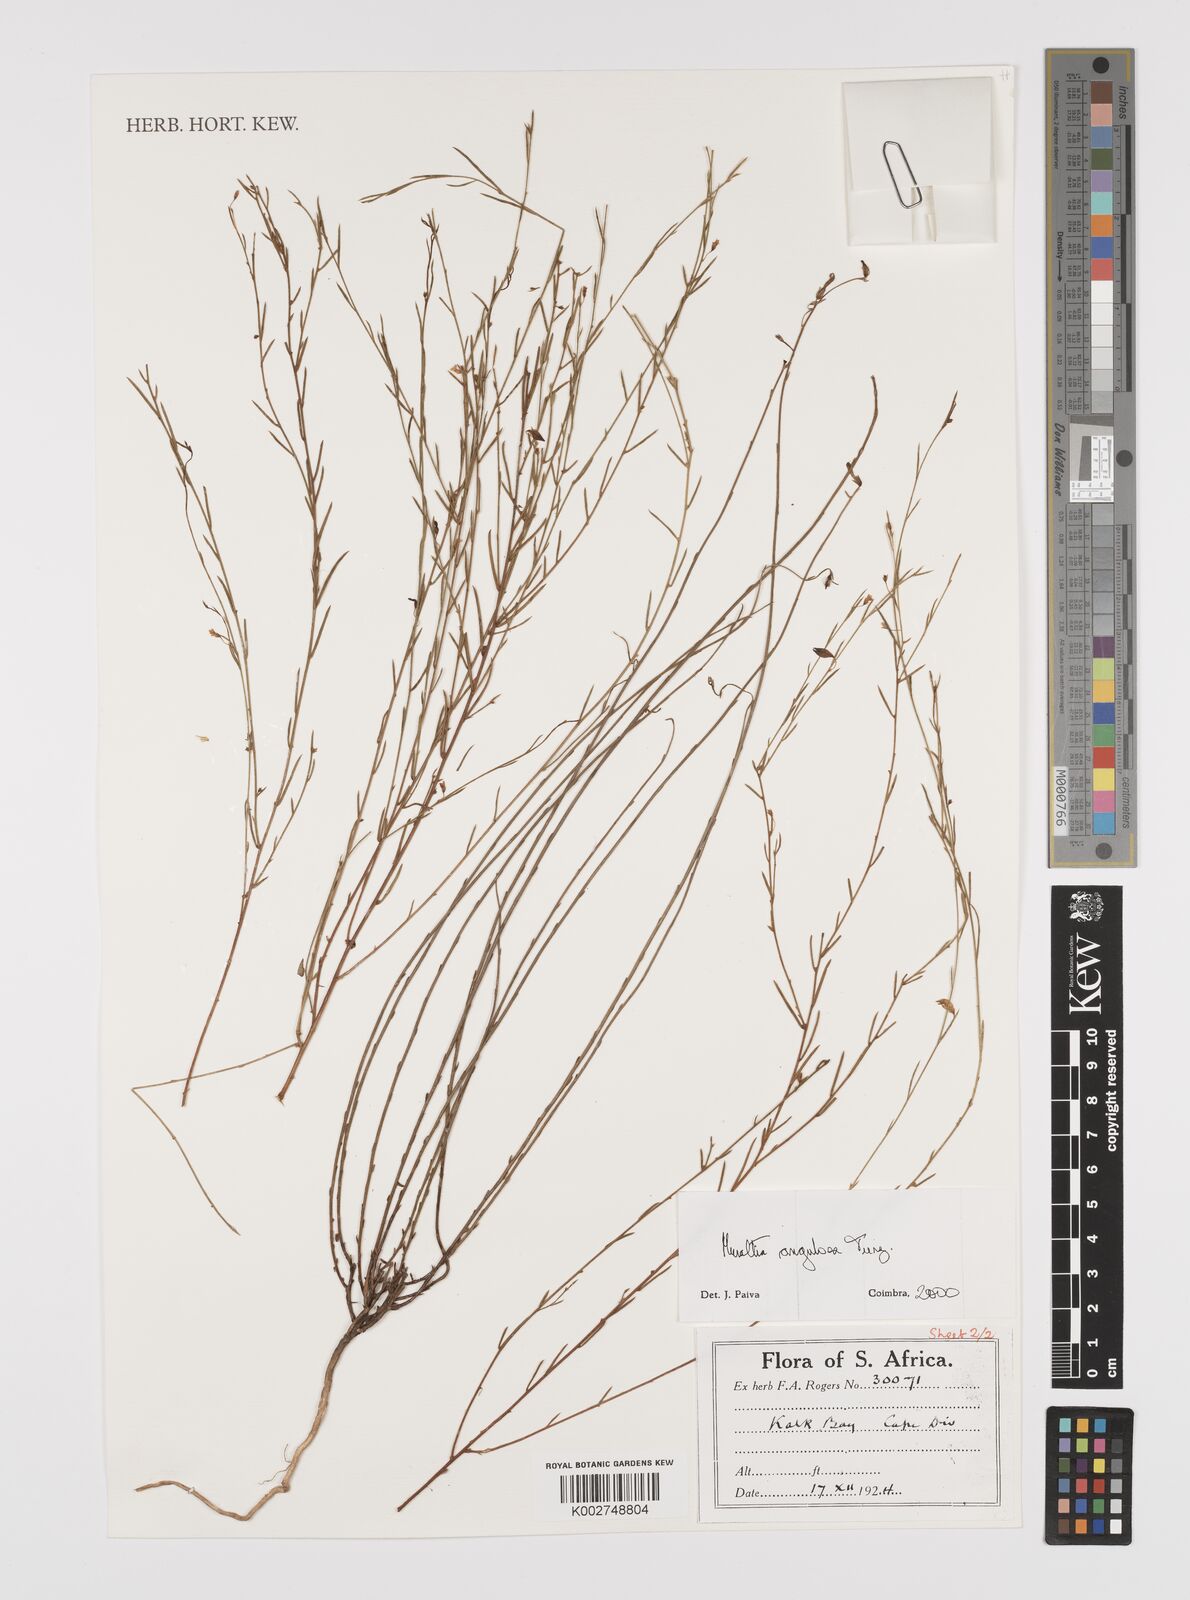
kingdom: Plantae
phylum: Tracheophyta
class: Magnoliopsida
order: Fabales
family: Polygalaceae
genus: Muraltia
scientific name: Muraltia angulosa
